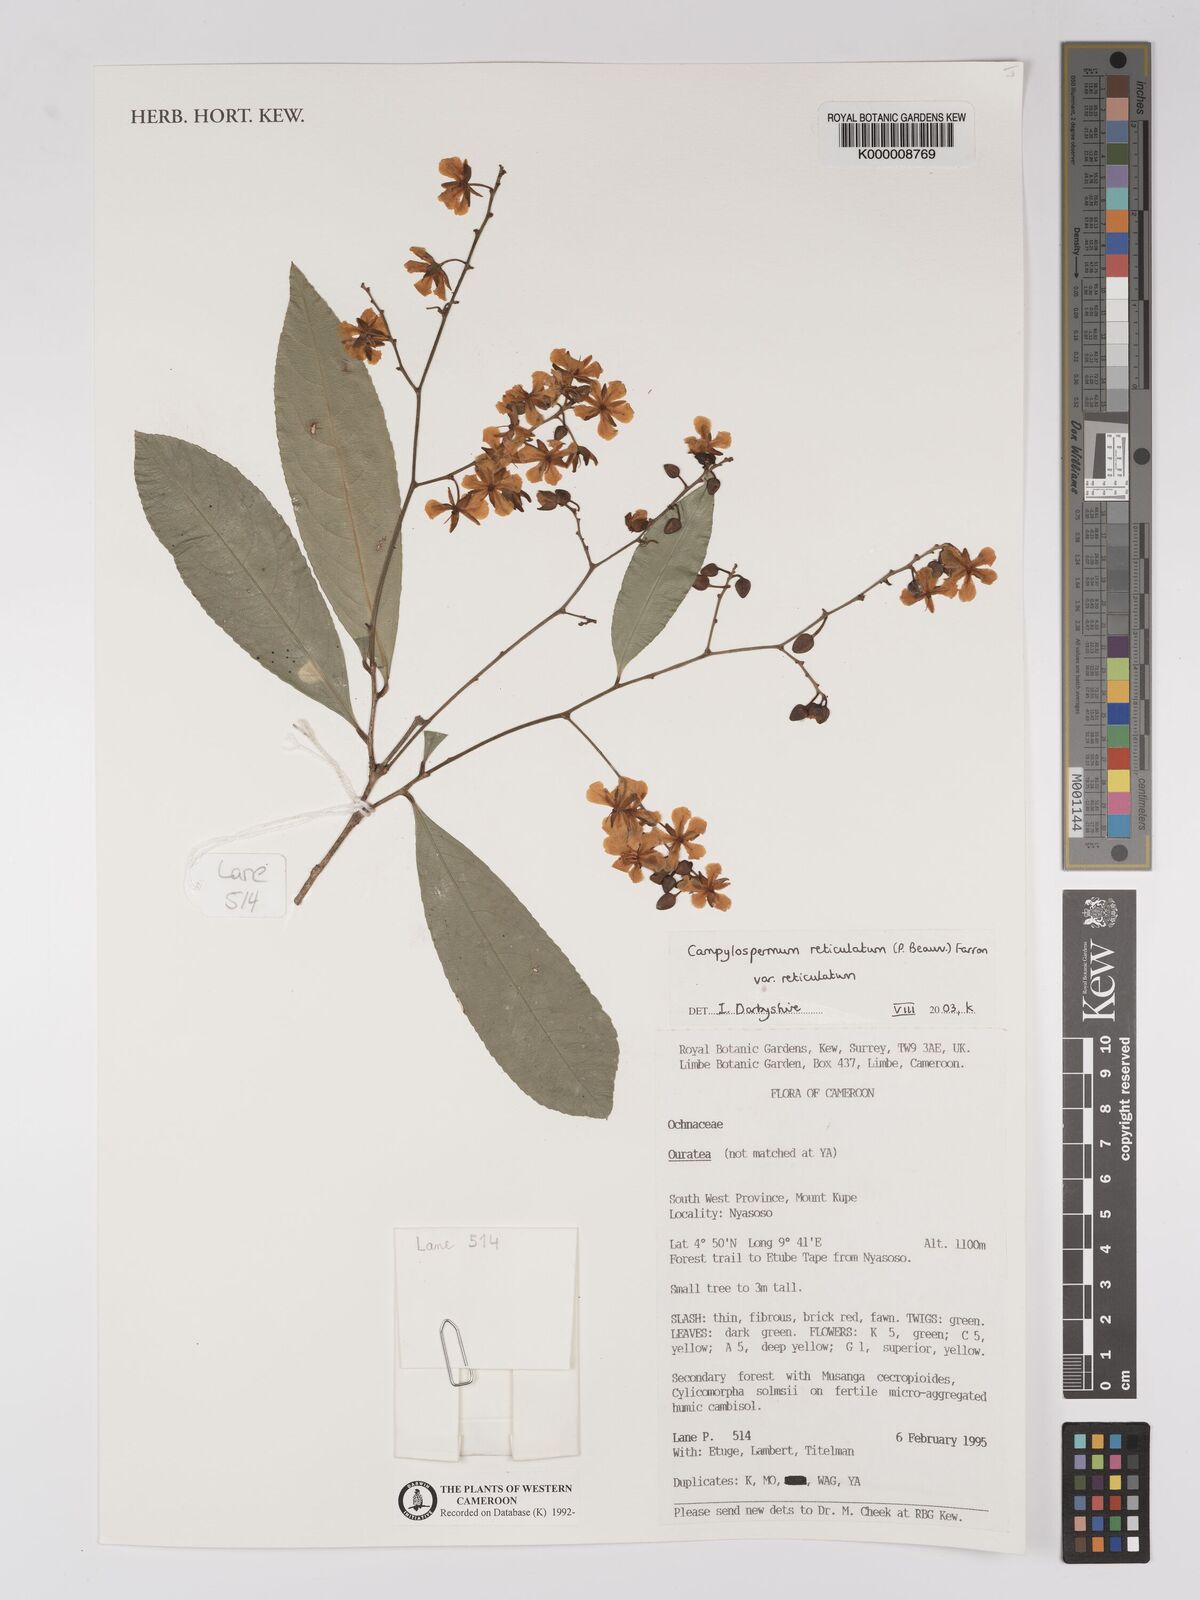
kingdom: Plantae
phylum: Tracheophyta
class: Magnoliopsida
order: Malpighiales
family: Ochnaceae
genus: Campylospermum
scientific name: Campylospermum reticulatum
